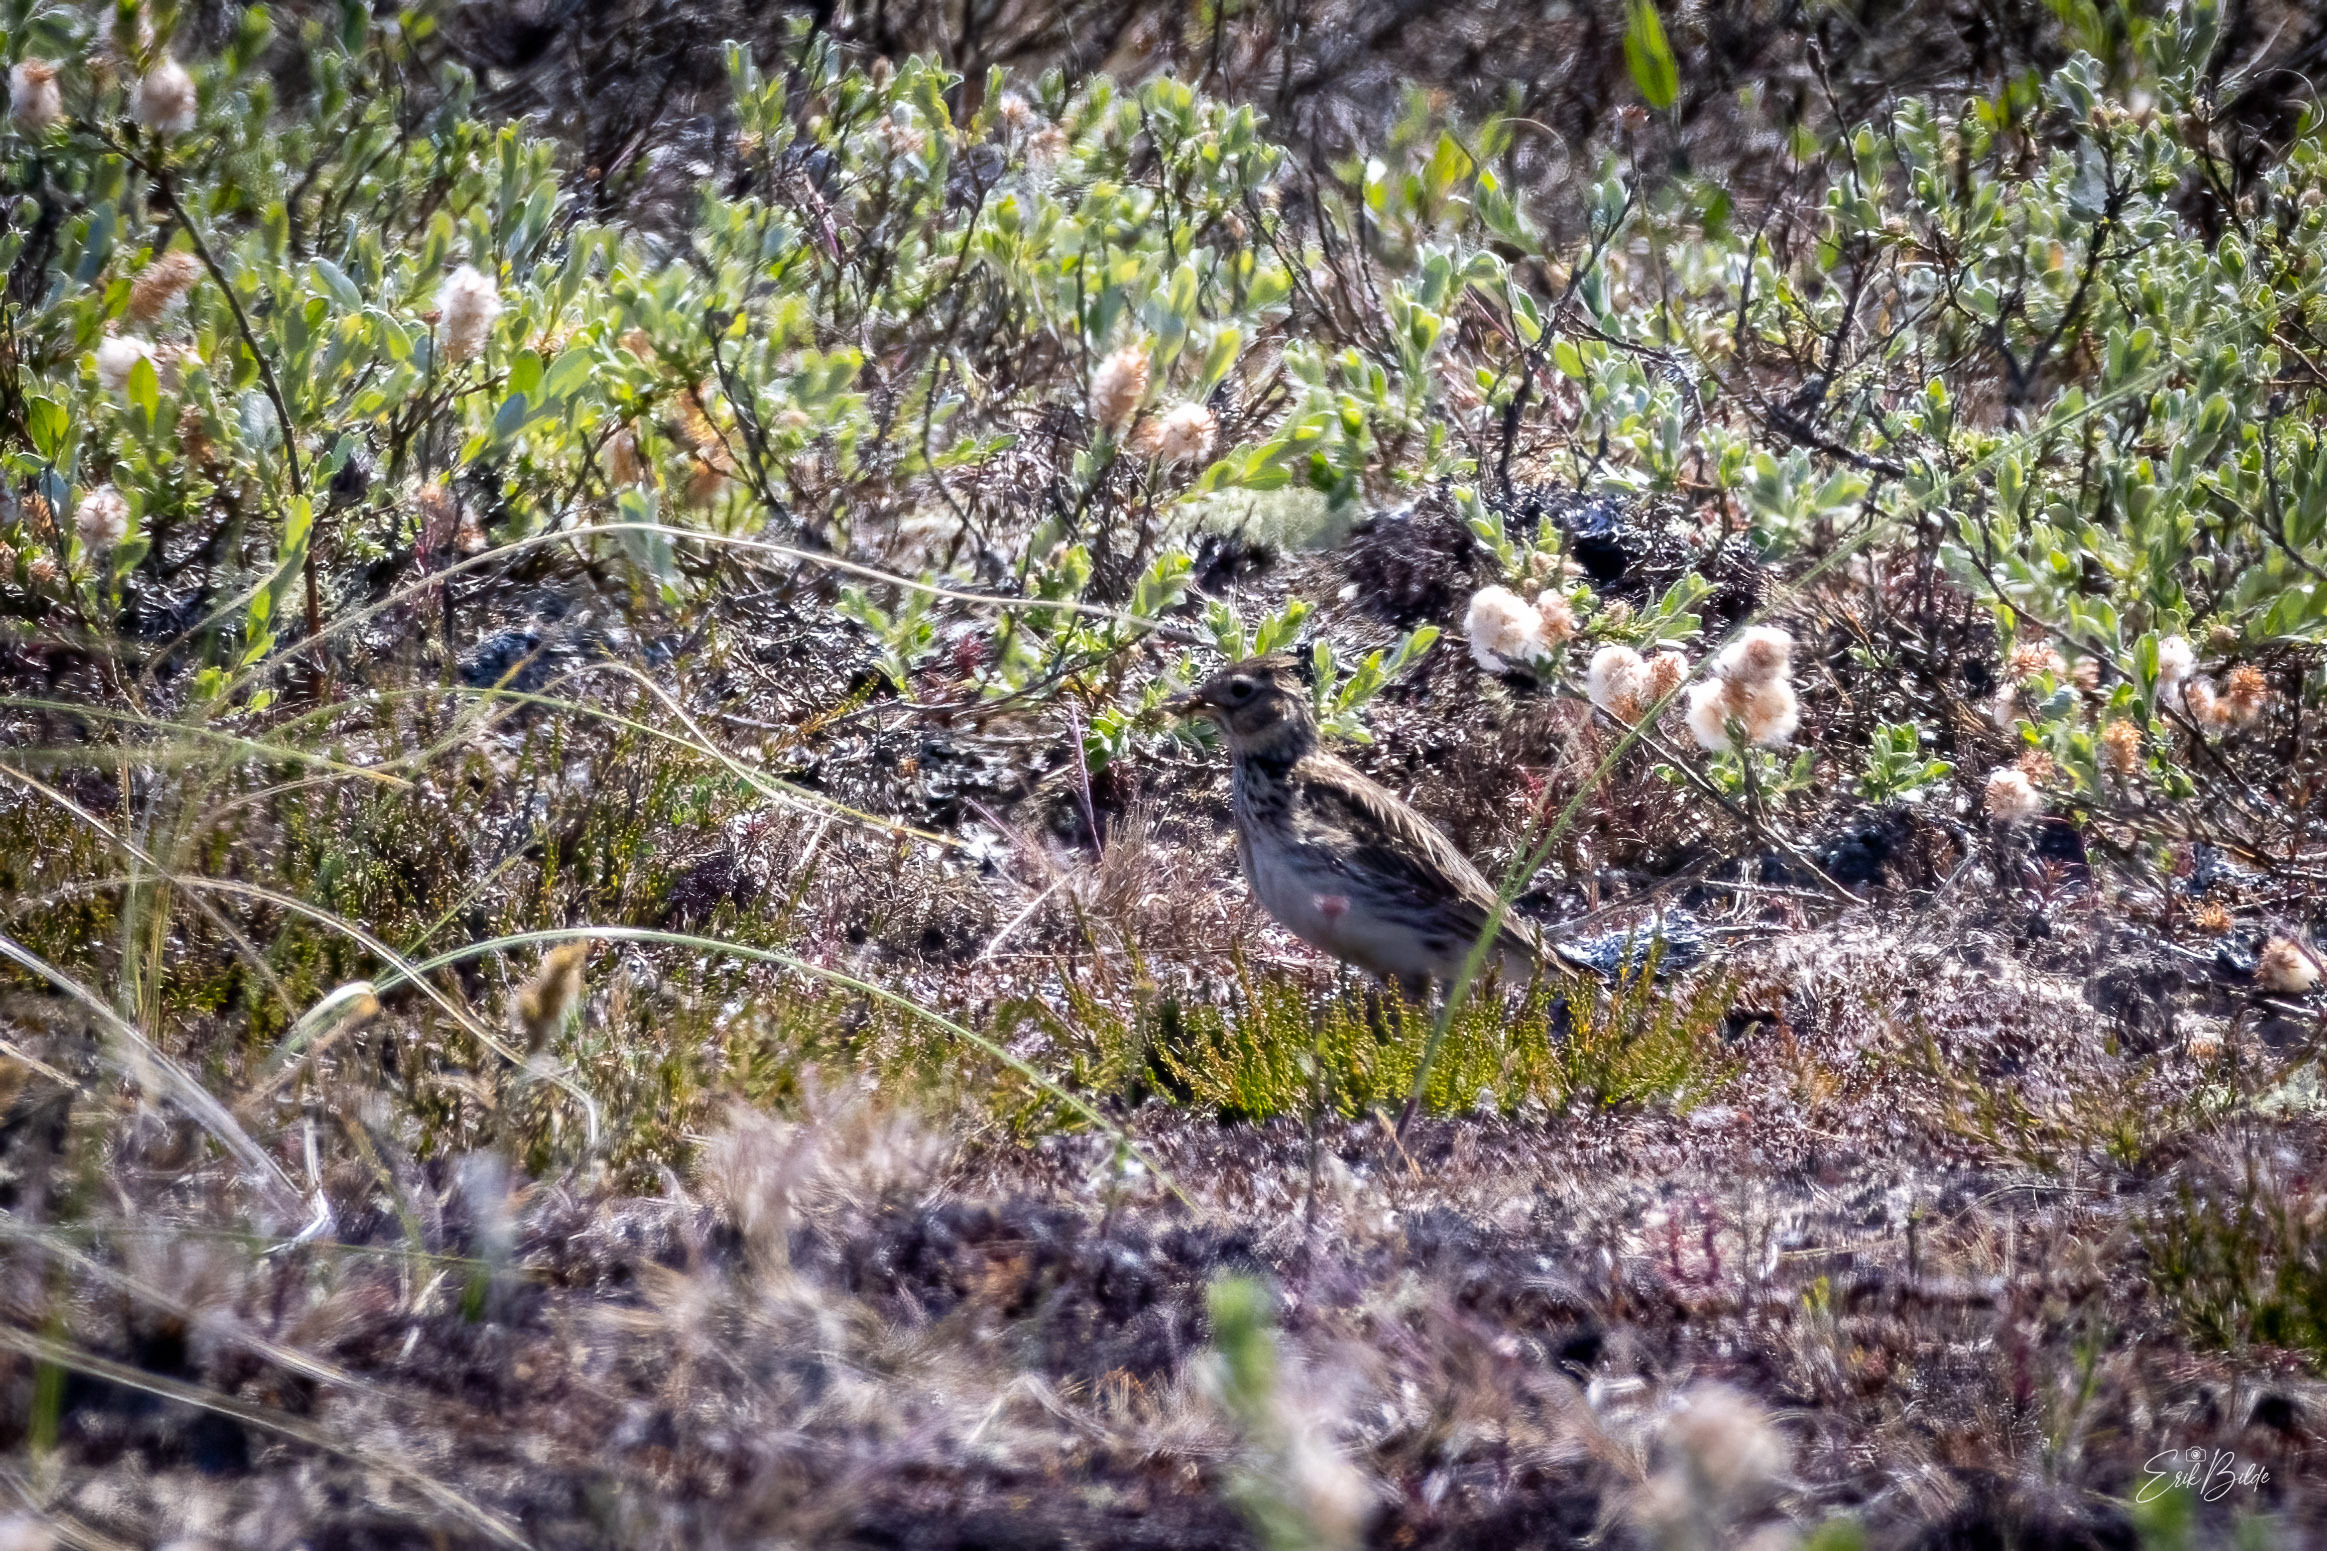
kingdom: Animalia
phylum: Chordata
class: Aves
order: Passeriformes
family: Alaudidae
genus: Alauda
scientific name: Alauda arvensis
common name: Sanglærke
